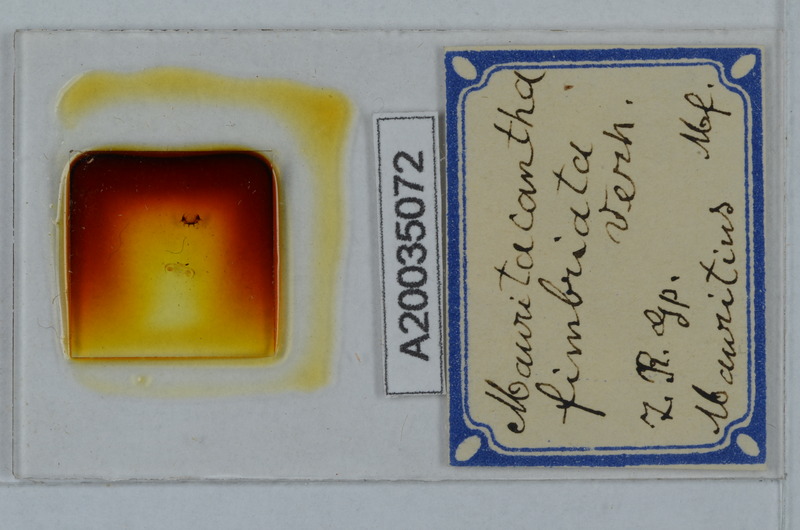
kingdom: Animalia
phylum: Arthropoda
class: Diplopoda
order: Polydesmida
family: Trichopolydesmidae
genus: Mauritacantha
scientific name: Mauritacantha fimbriata
